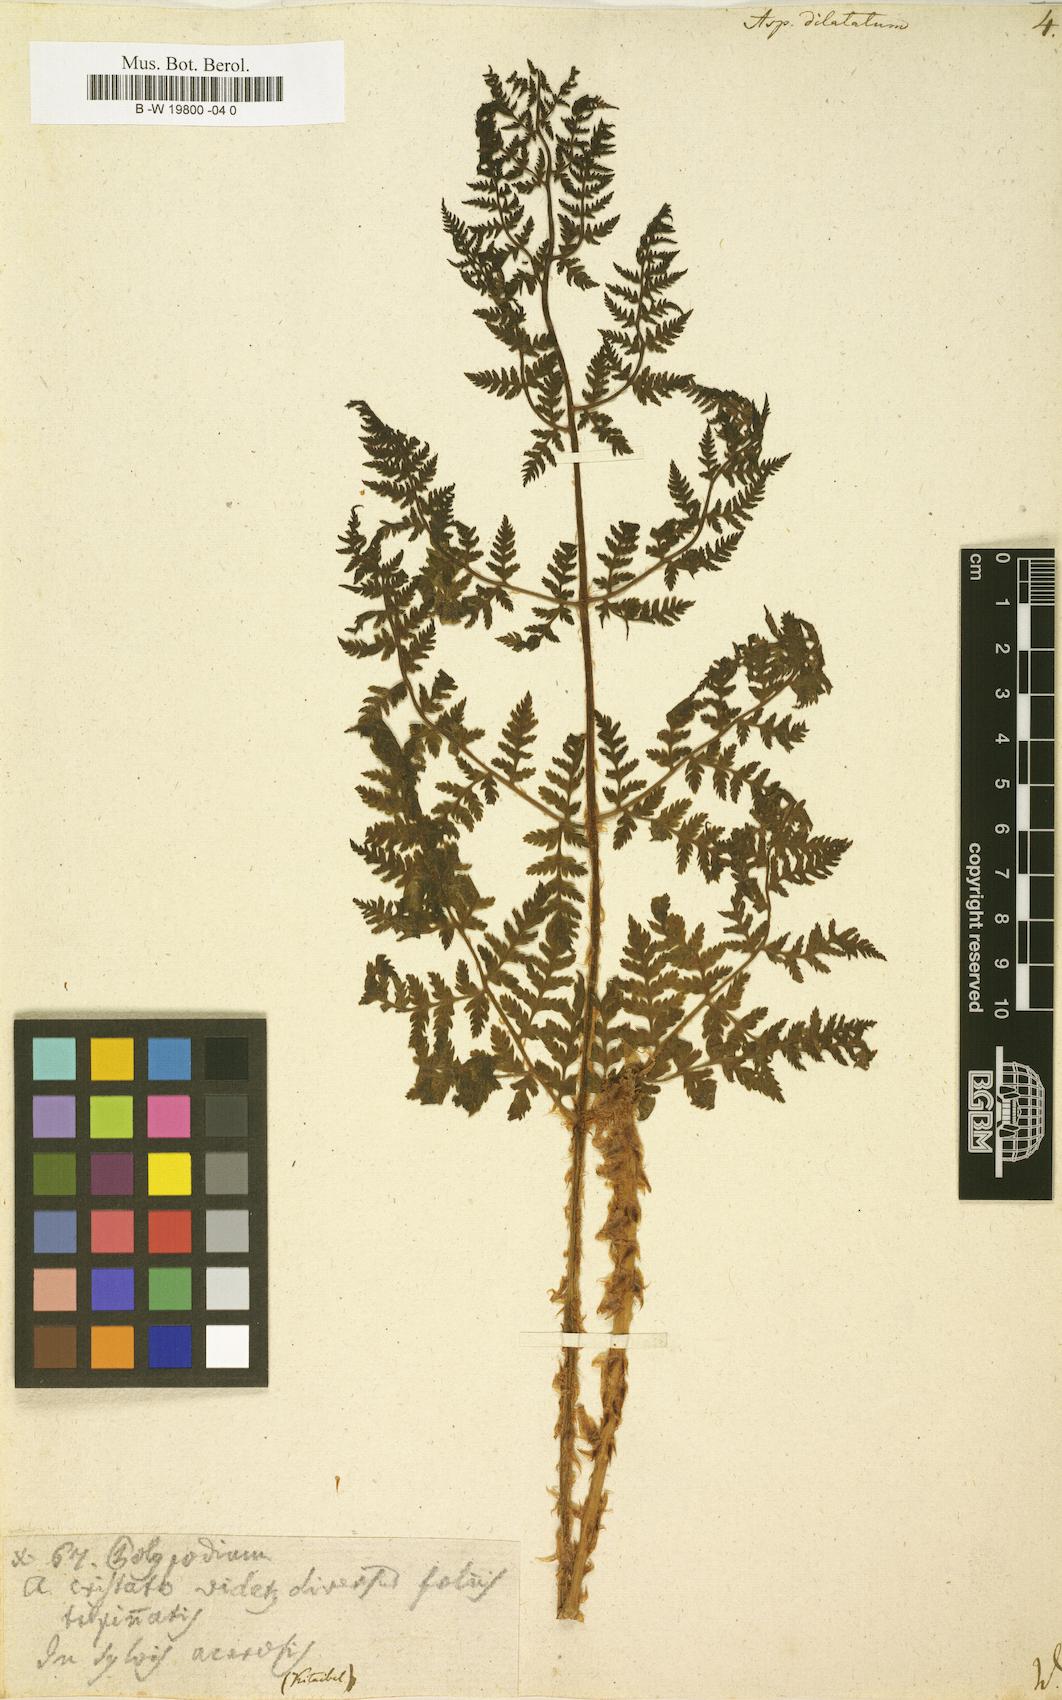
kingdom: Plantae
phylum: Tracheophyta
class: Polypodiopsida
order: Polypodiales
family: Dryopteridaceae
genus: Dryopteris
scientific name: Dryopteris dilatata
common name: Broad buckler-fern
